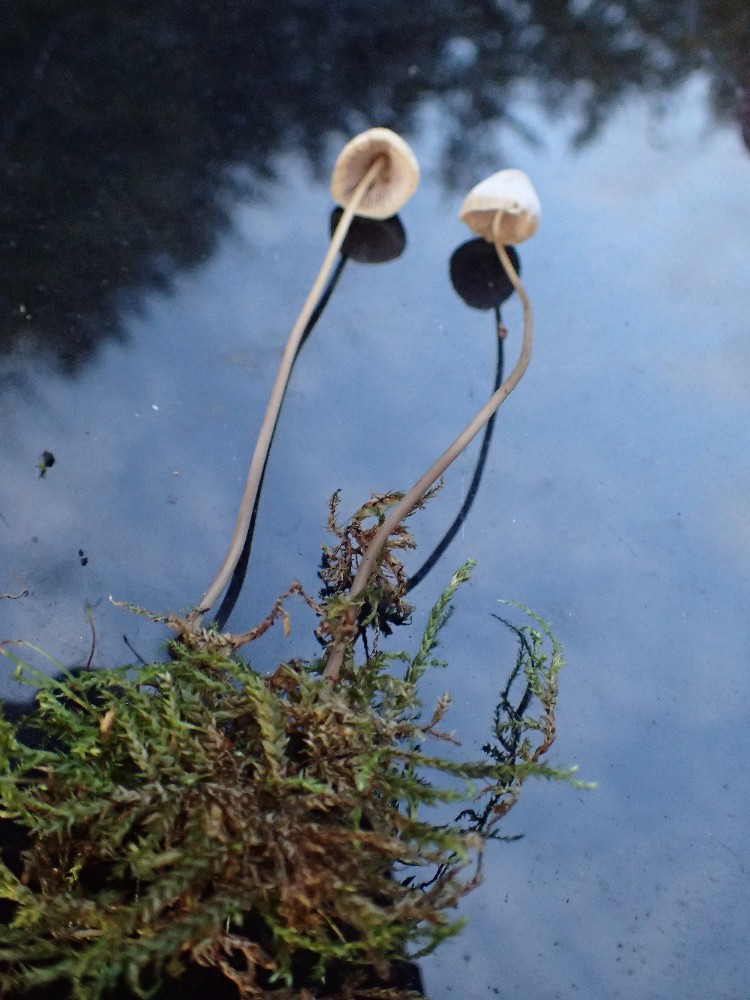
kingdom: Fungi
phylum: Basidiomycota
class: Agaricomycetes
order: Agaricales
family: Mycenaceae
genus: Mycena
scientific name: Mycena filopes
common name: jod-huesvamp
